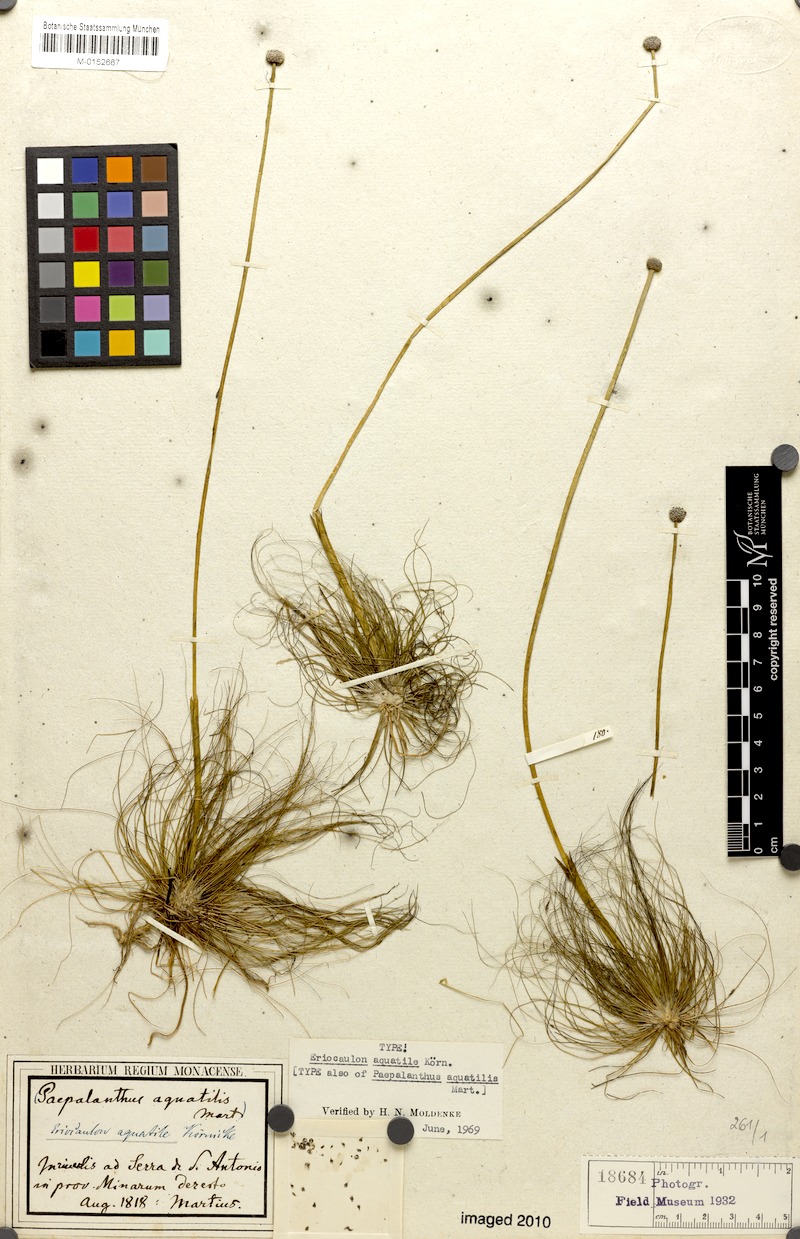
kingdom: Plantae
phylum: Tracheophyta
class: Liliopsida
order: Poales
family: Eriocaulaceae
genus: Eriocaulon
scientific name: Eriocaulon aquatile
